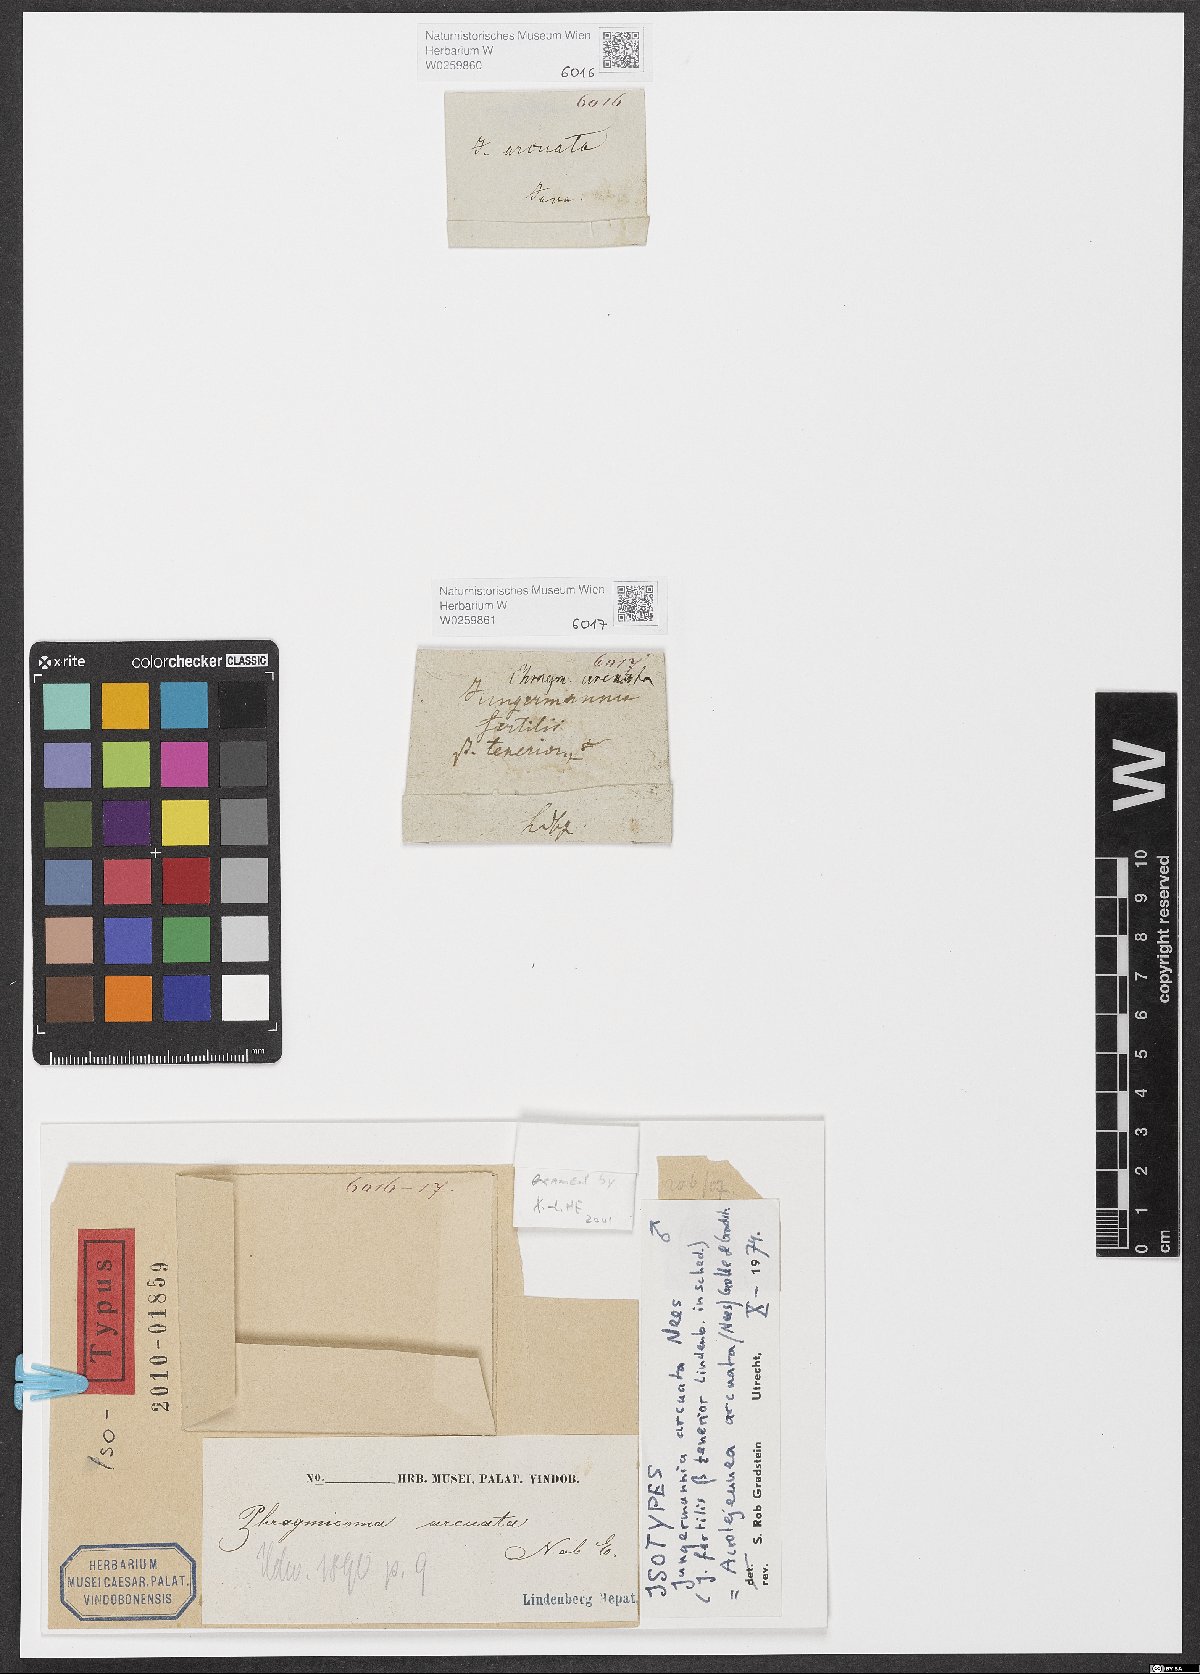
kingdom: Plantae
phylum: Marchantiophyta
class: Jungermanniopsida
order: Porellales
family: Lejeuneaceae
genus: Acrolejeunea
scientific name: Acrolejeunea arcuata
